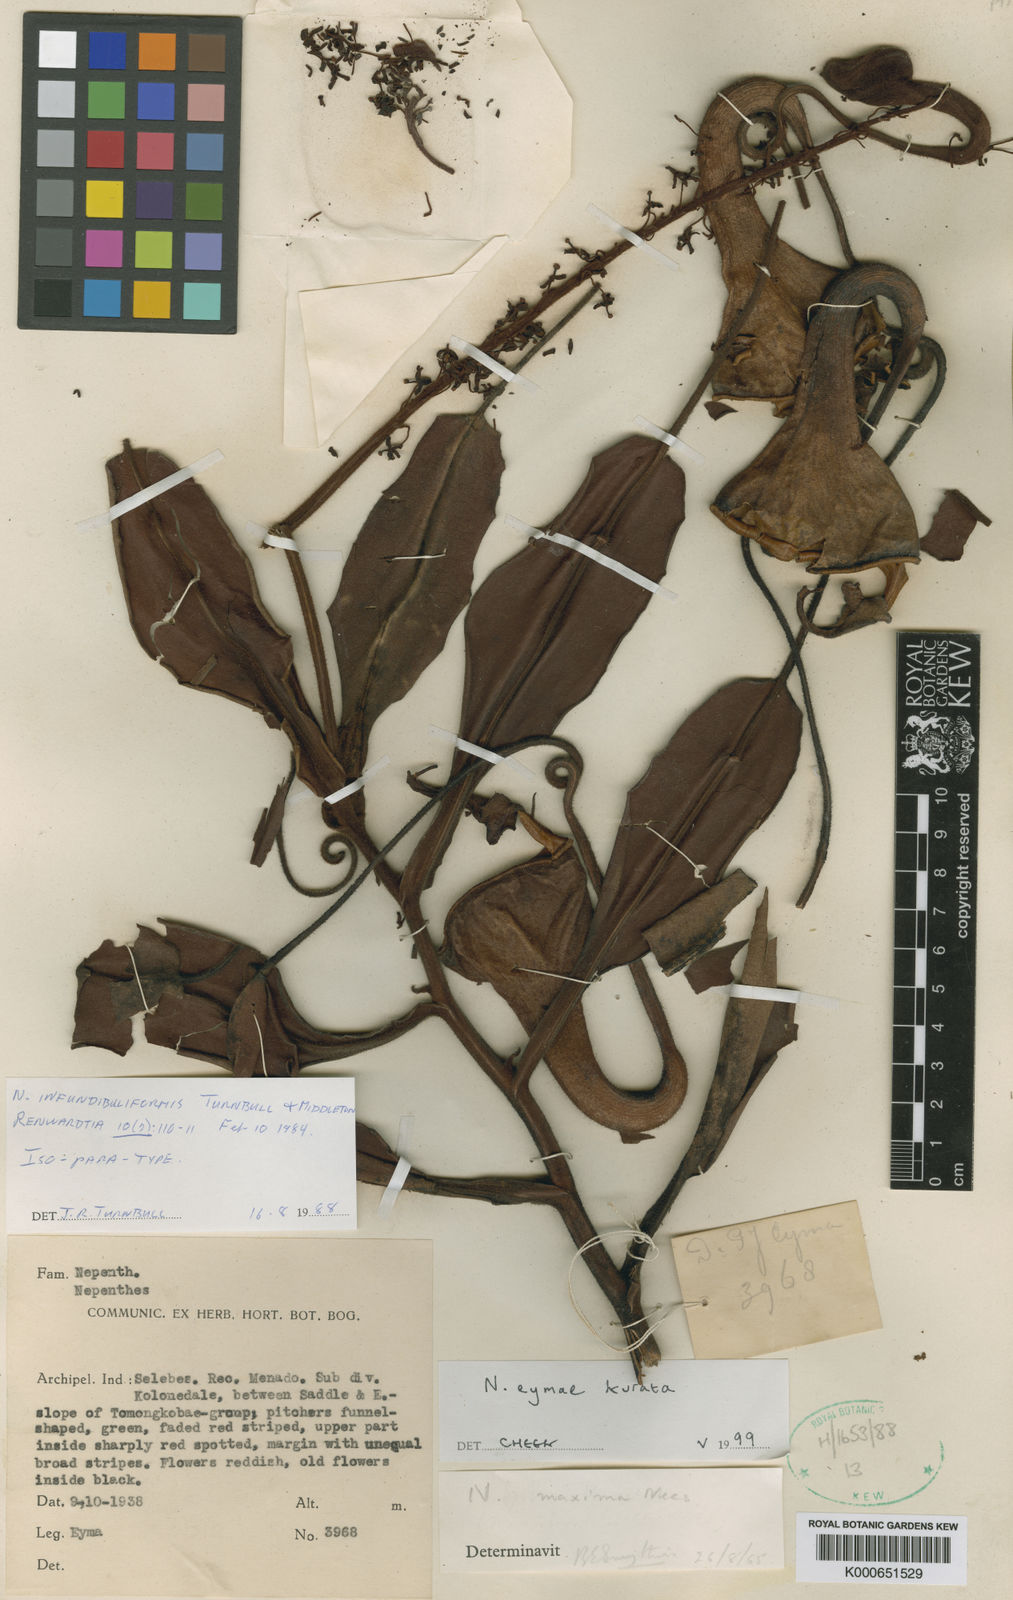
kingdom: Plantae
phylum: Tracheophyta
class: Magnoliopsida
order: Caryophyllales
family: Nepenthaceae
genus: Nepenthes
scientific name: Nepenthes eymae
